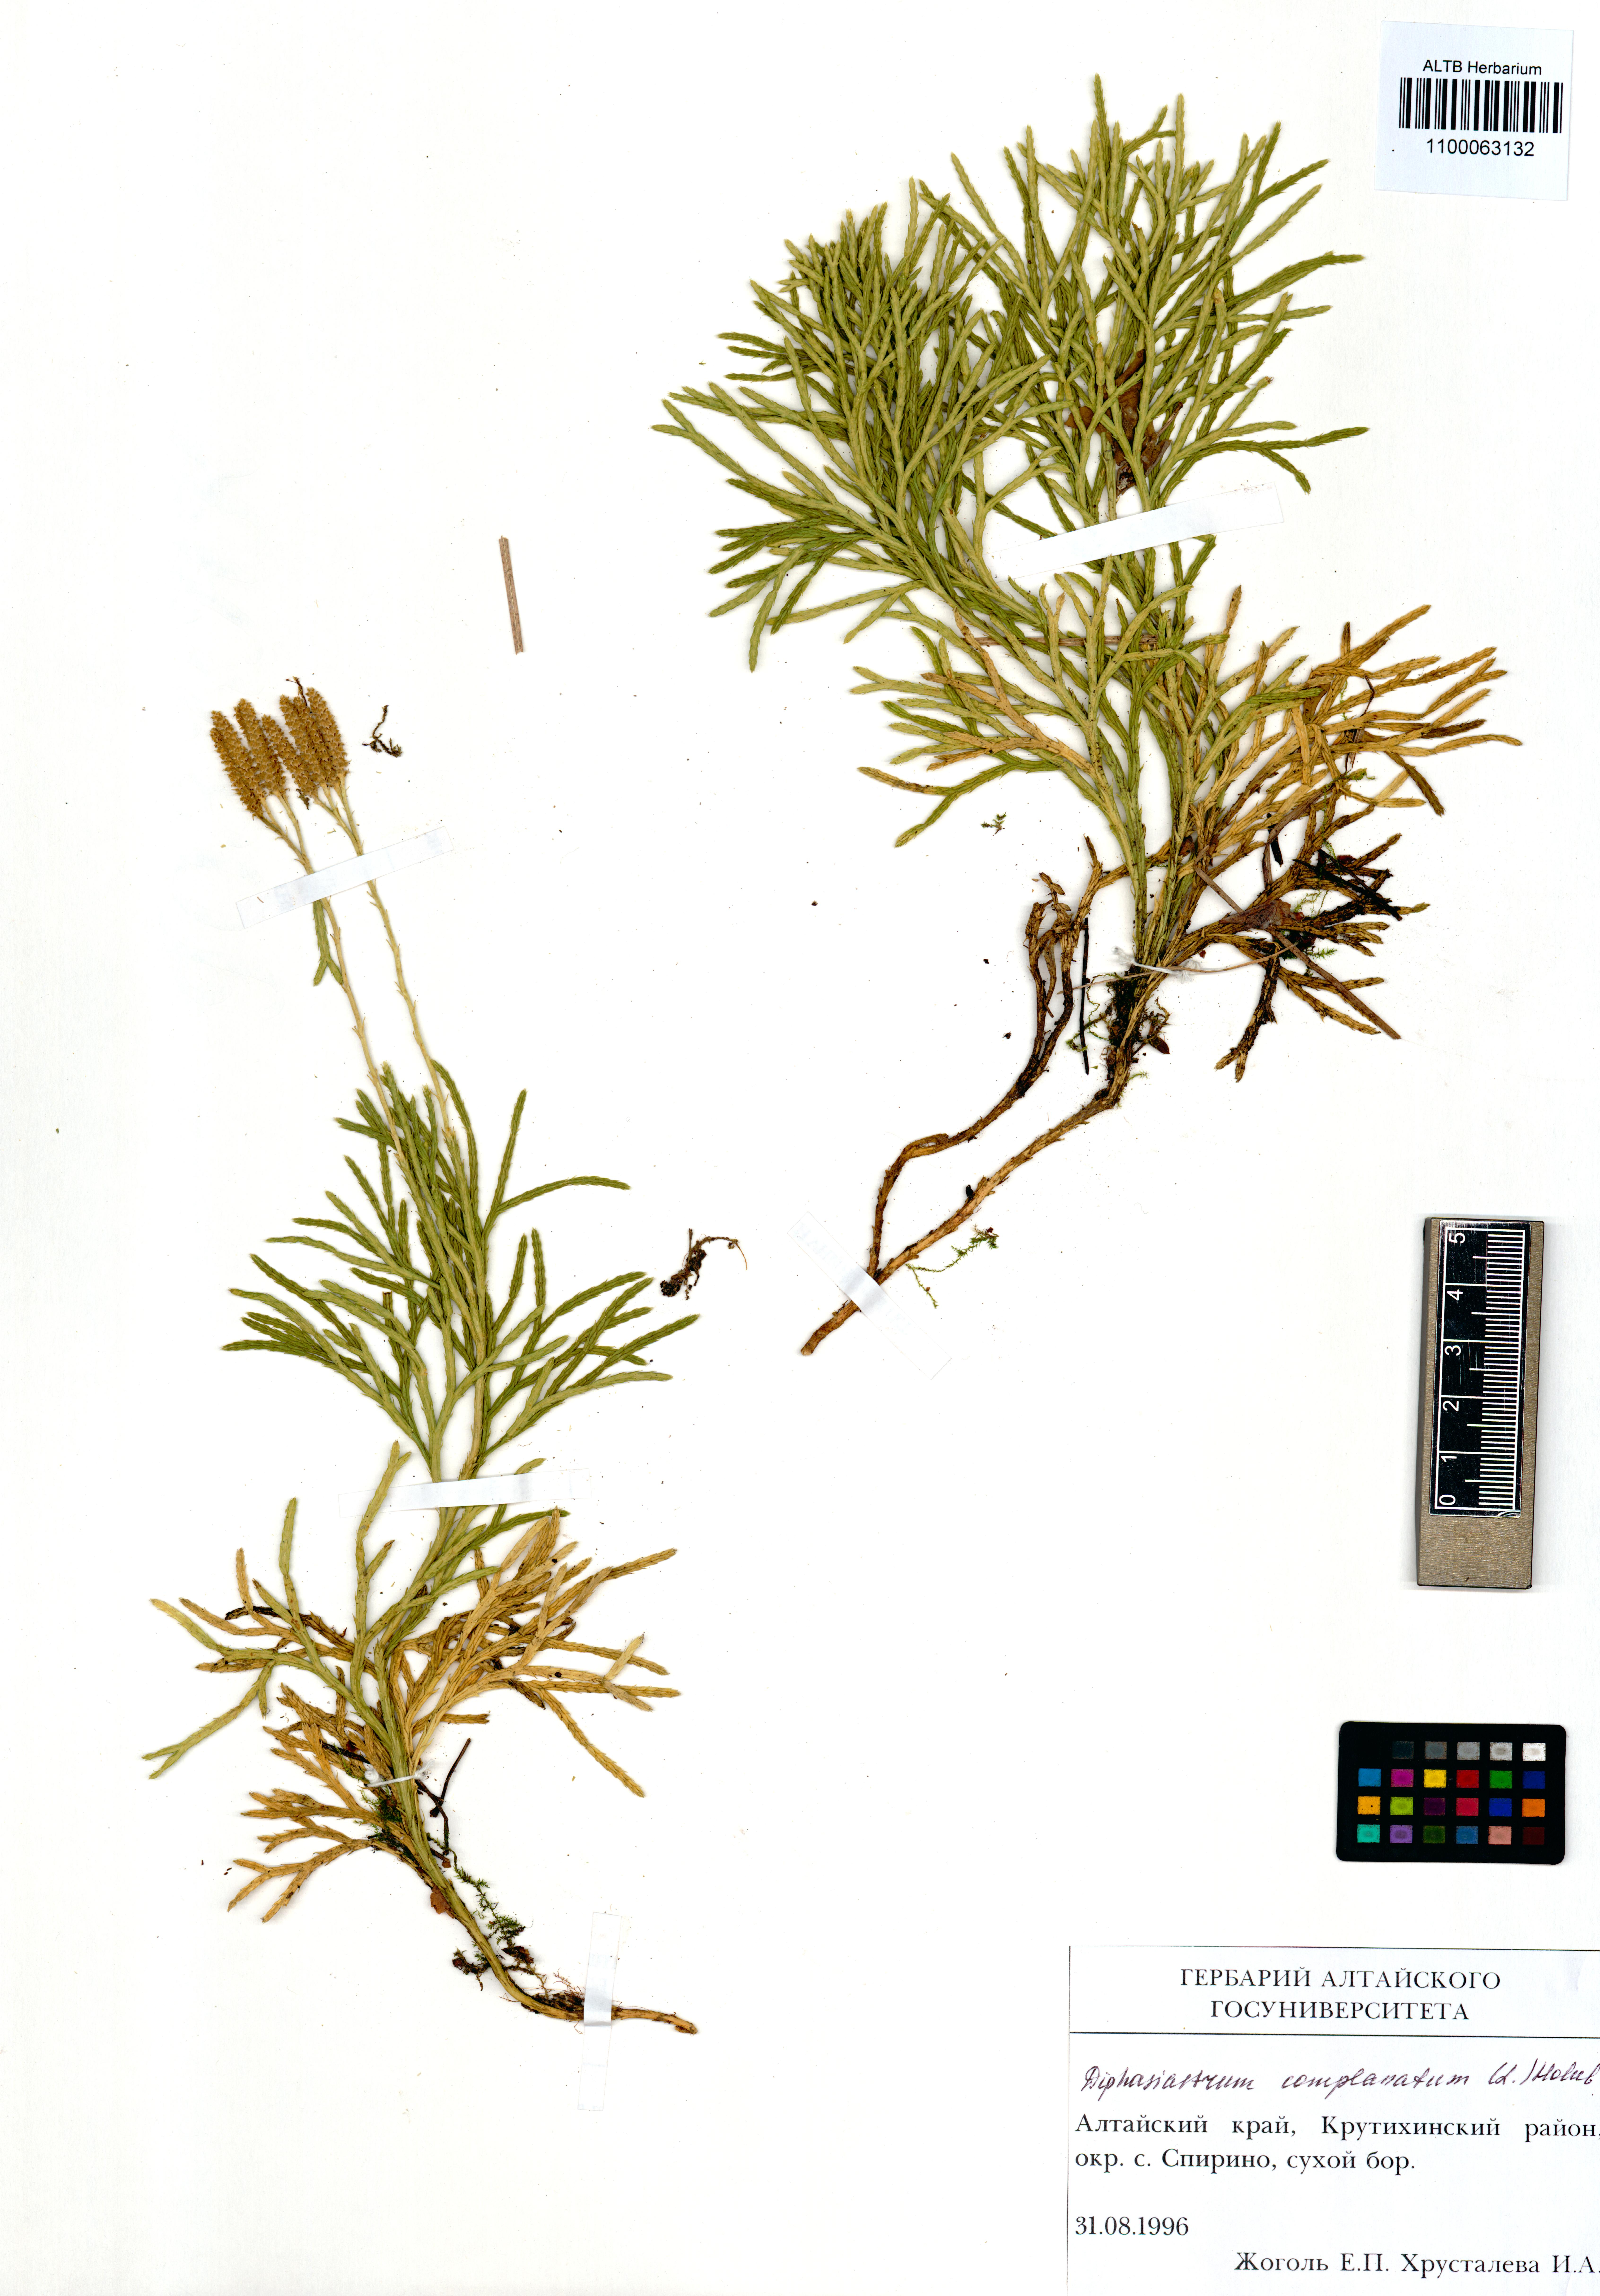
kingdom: Plantae
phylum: Tracheophyta
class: Lycopodiopsida
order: Lycopodiales
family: Lycopodiaceae
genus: Diphasiastrum
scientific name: Diphasiastrum complanatum
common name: Northern running-pine
